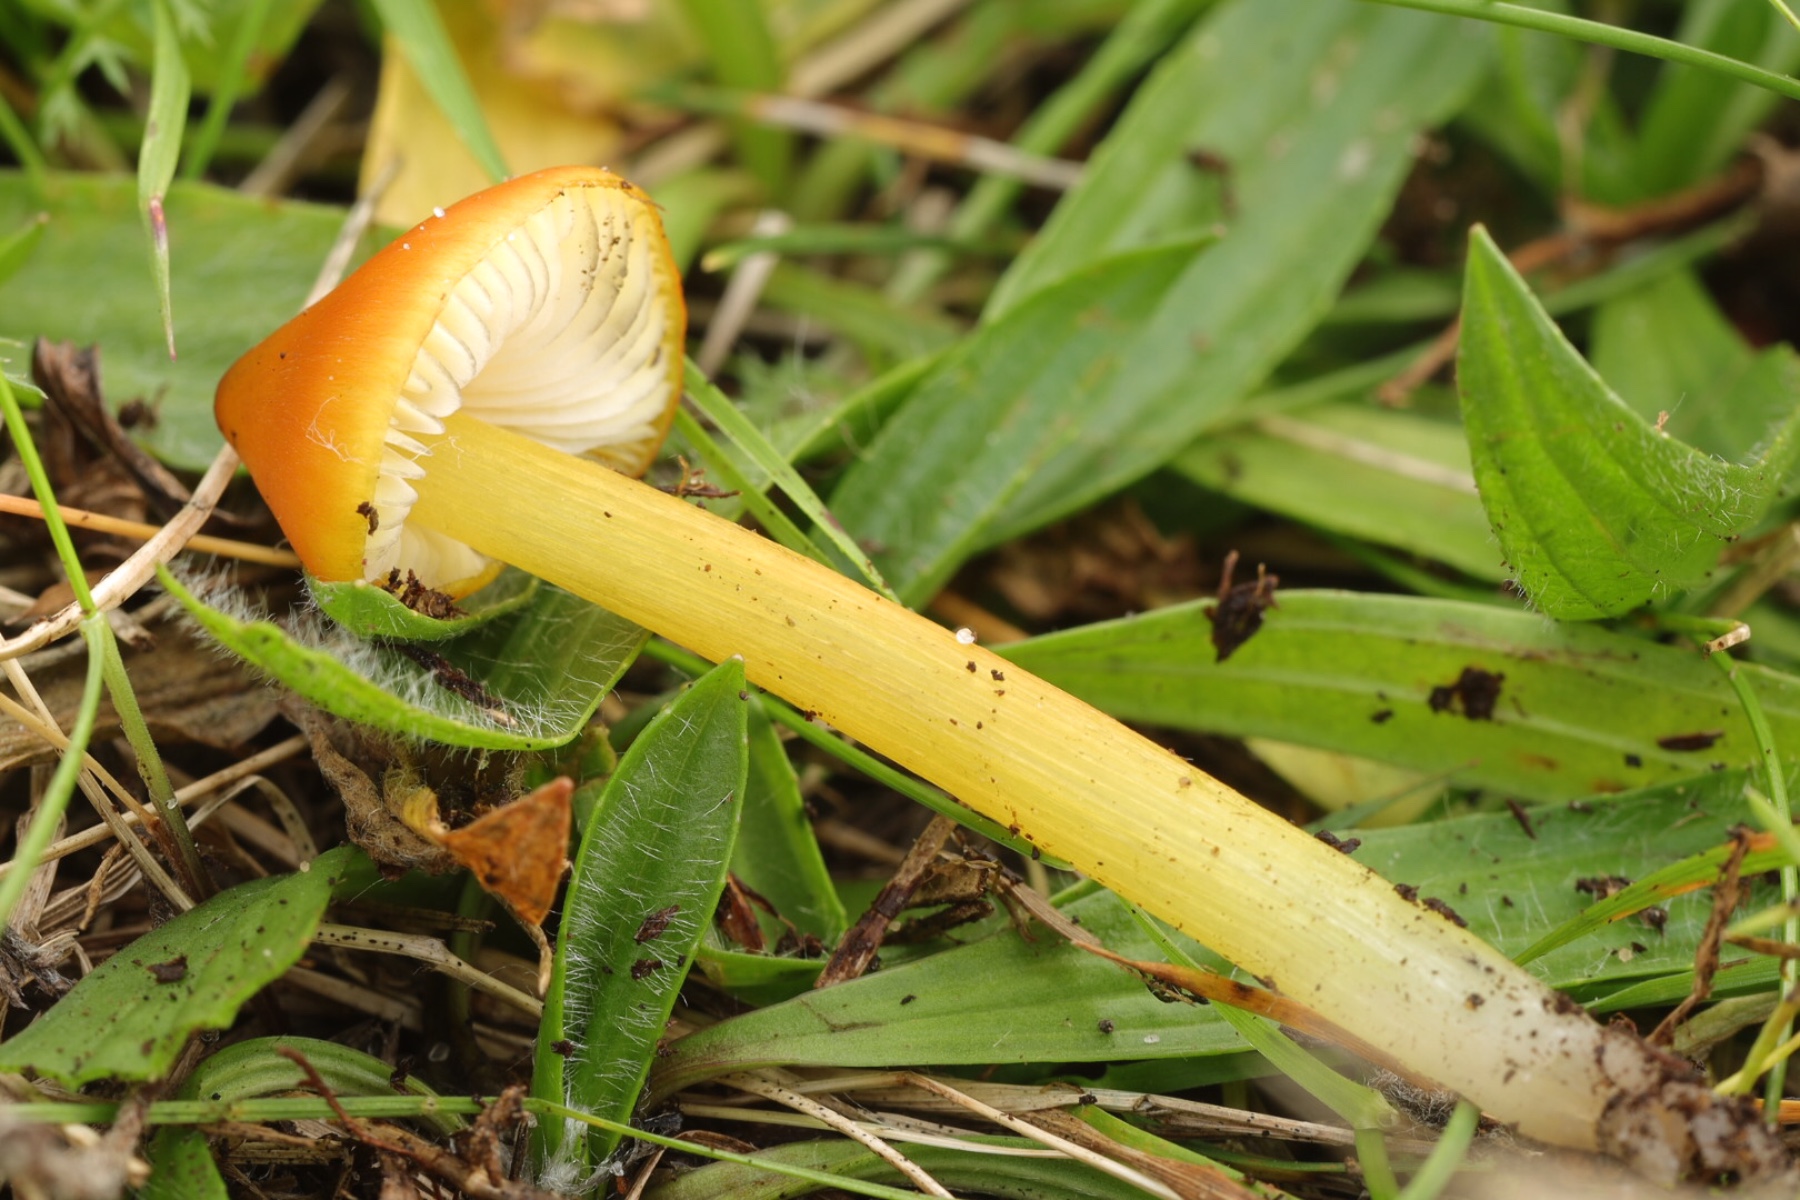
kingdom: Fungi
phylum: Basidiomycota
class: Agaricomycetes
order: Agaricales
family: Hygrophoraceae
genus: Hygrocybe
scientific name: Hygrocybe conica
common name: kegle-vokshat
